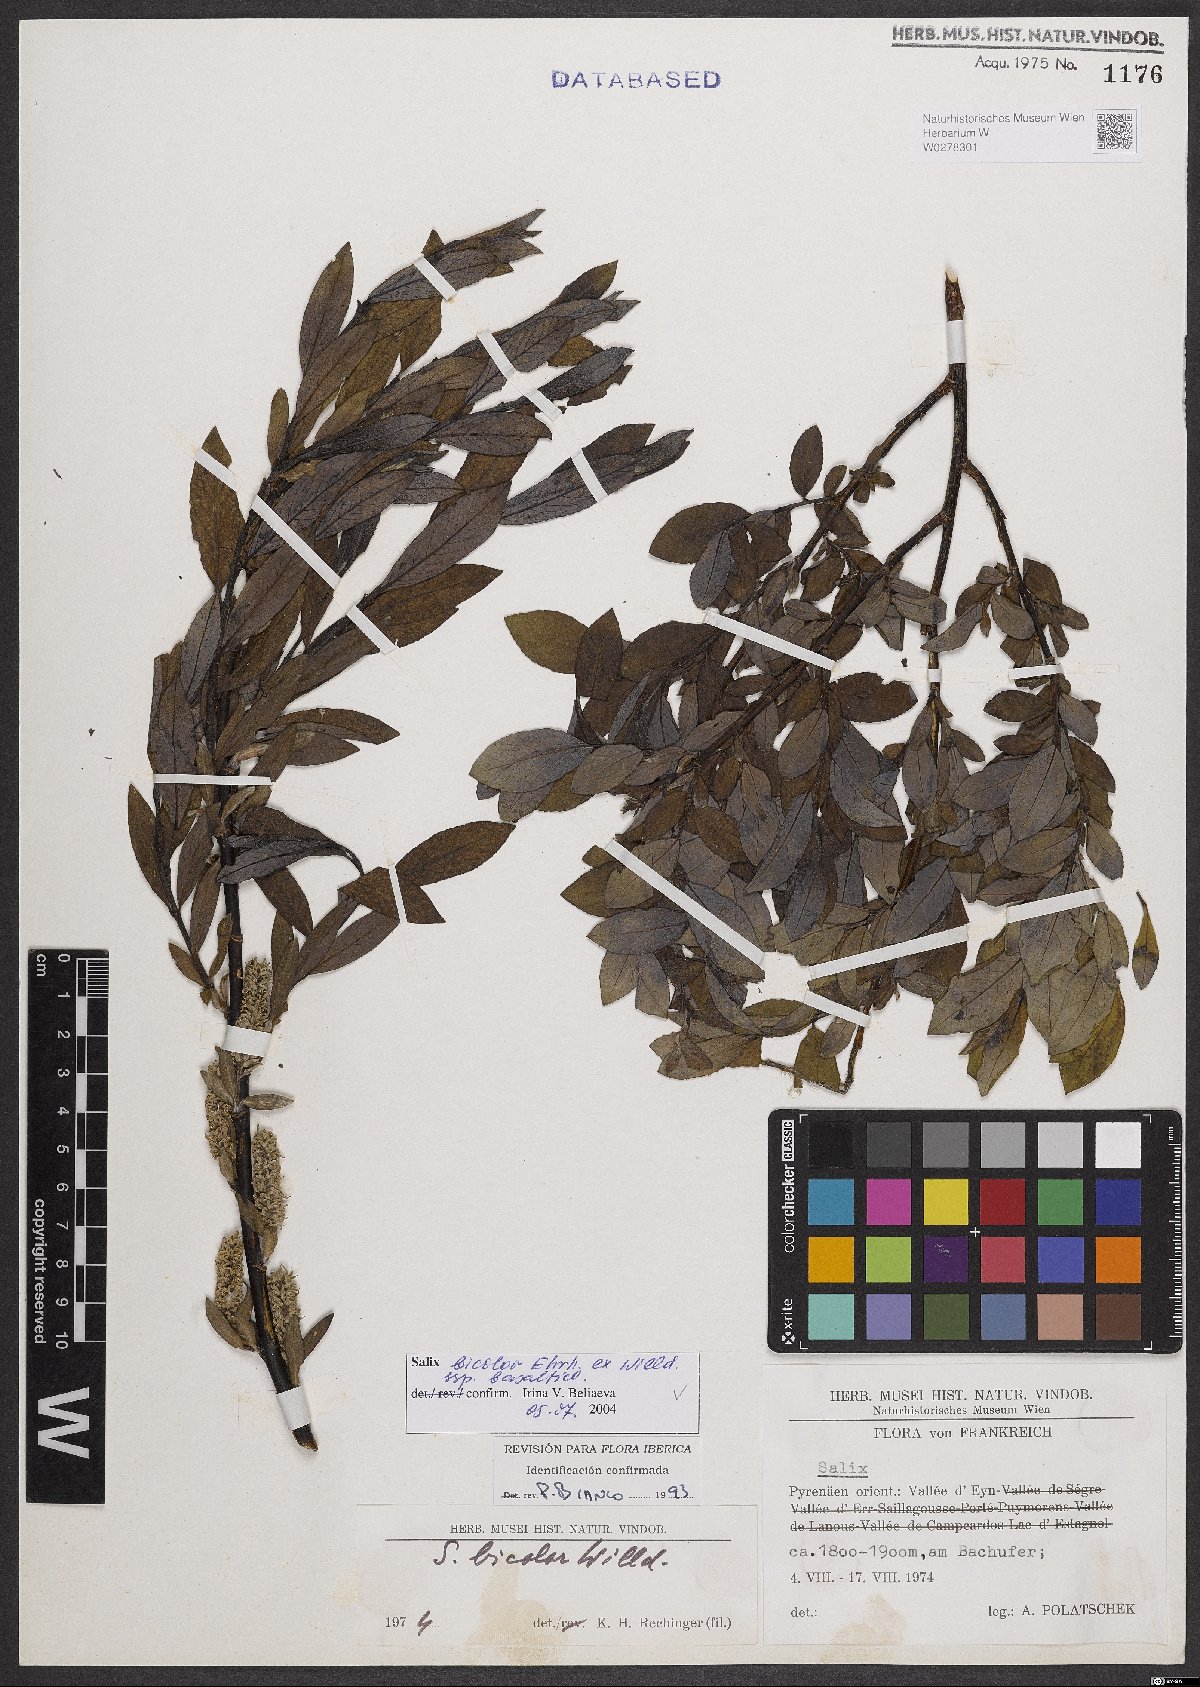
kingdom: Plantae
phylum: Tracheophyta
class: Magnoliopsida
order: Malpighiales
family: Salicaceae
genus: Salix
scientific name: Salix basaltica
